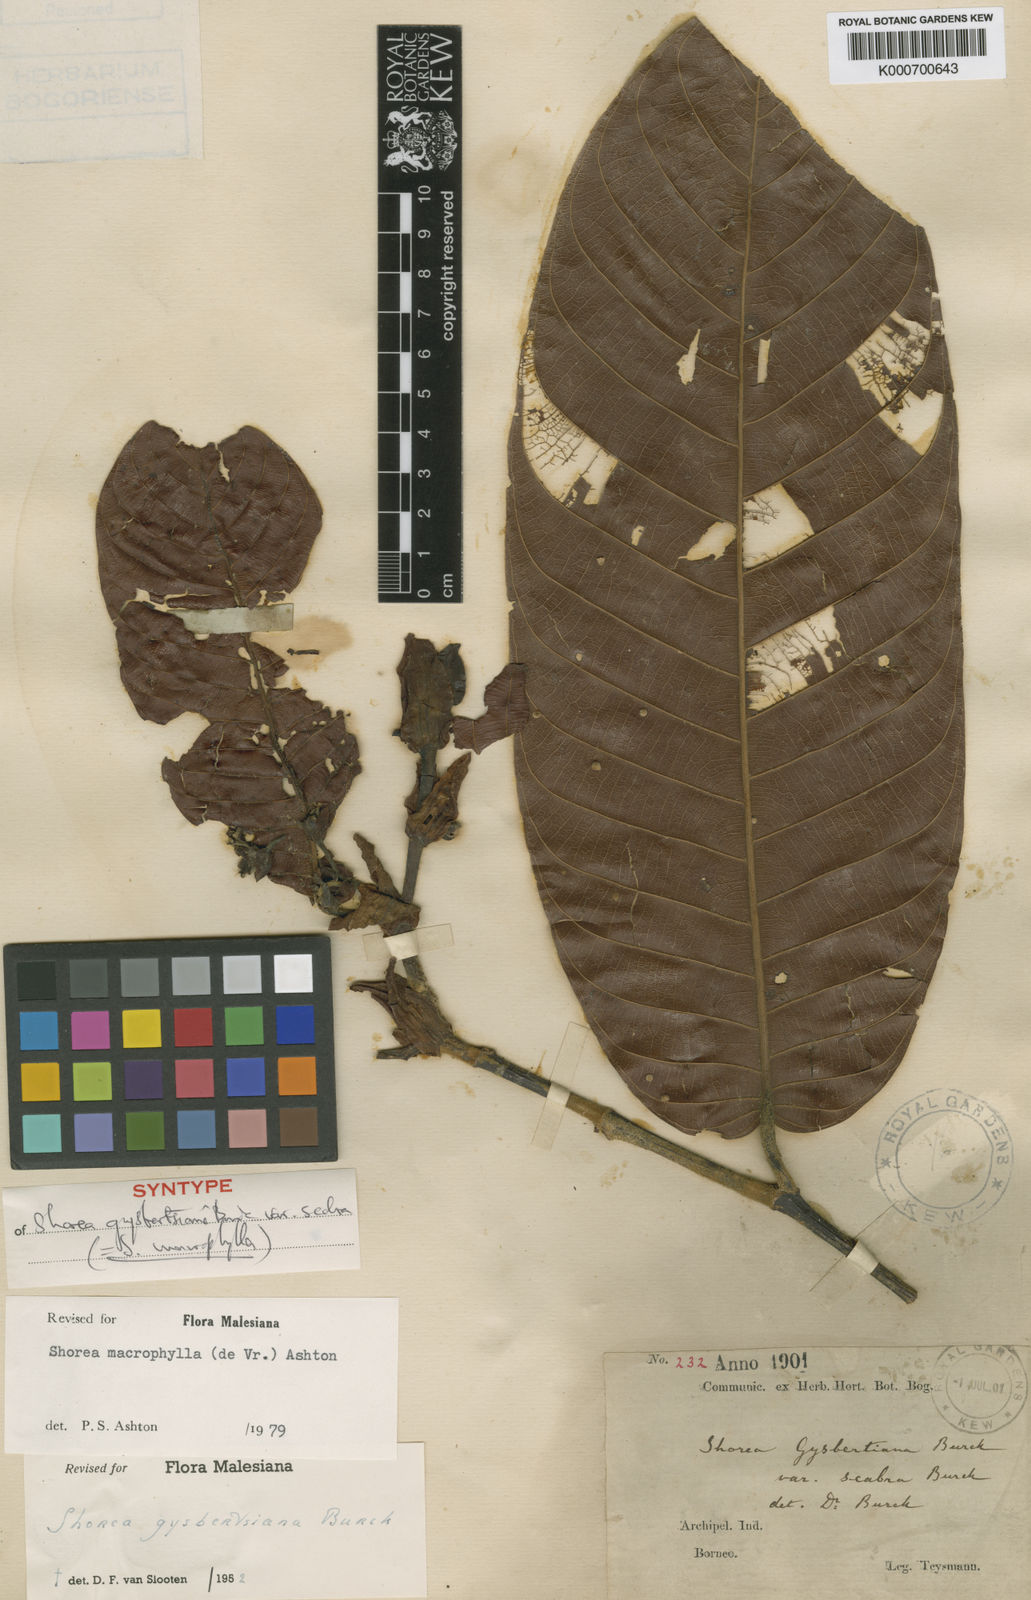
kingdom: Plantae
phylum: Tracheophyta
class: Magnoliopsida
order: Malvales
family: Dipterocarpaceae
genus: Shorea
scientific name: Shorea macrophylla
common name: Light red meranti
